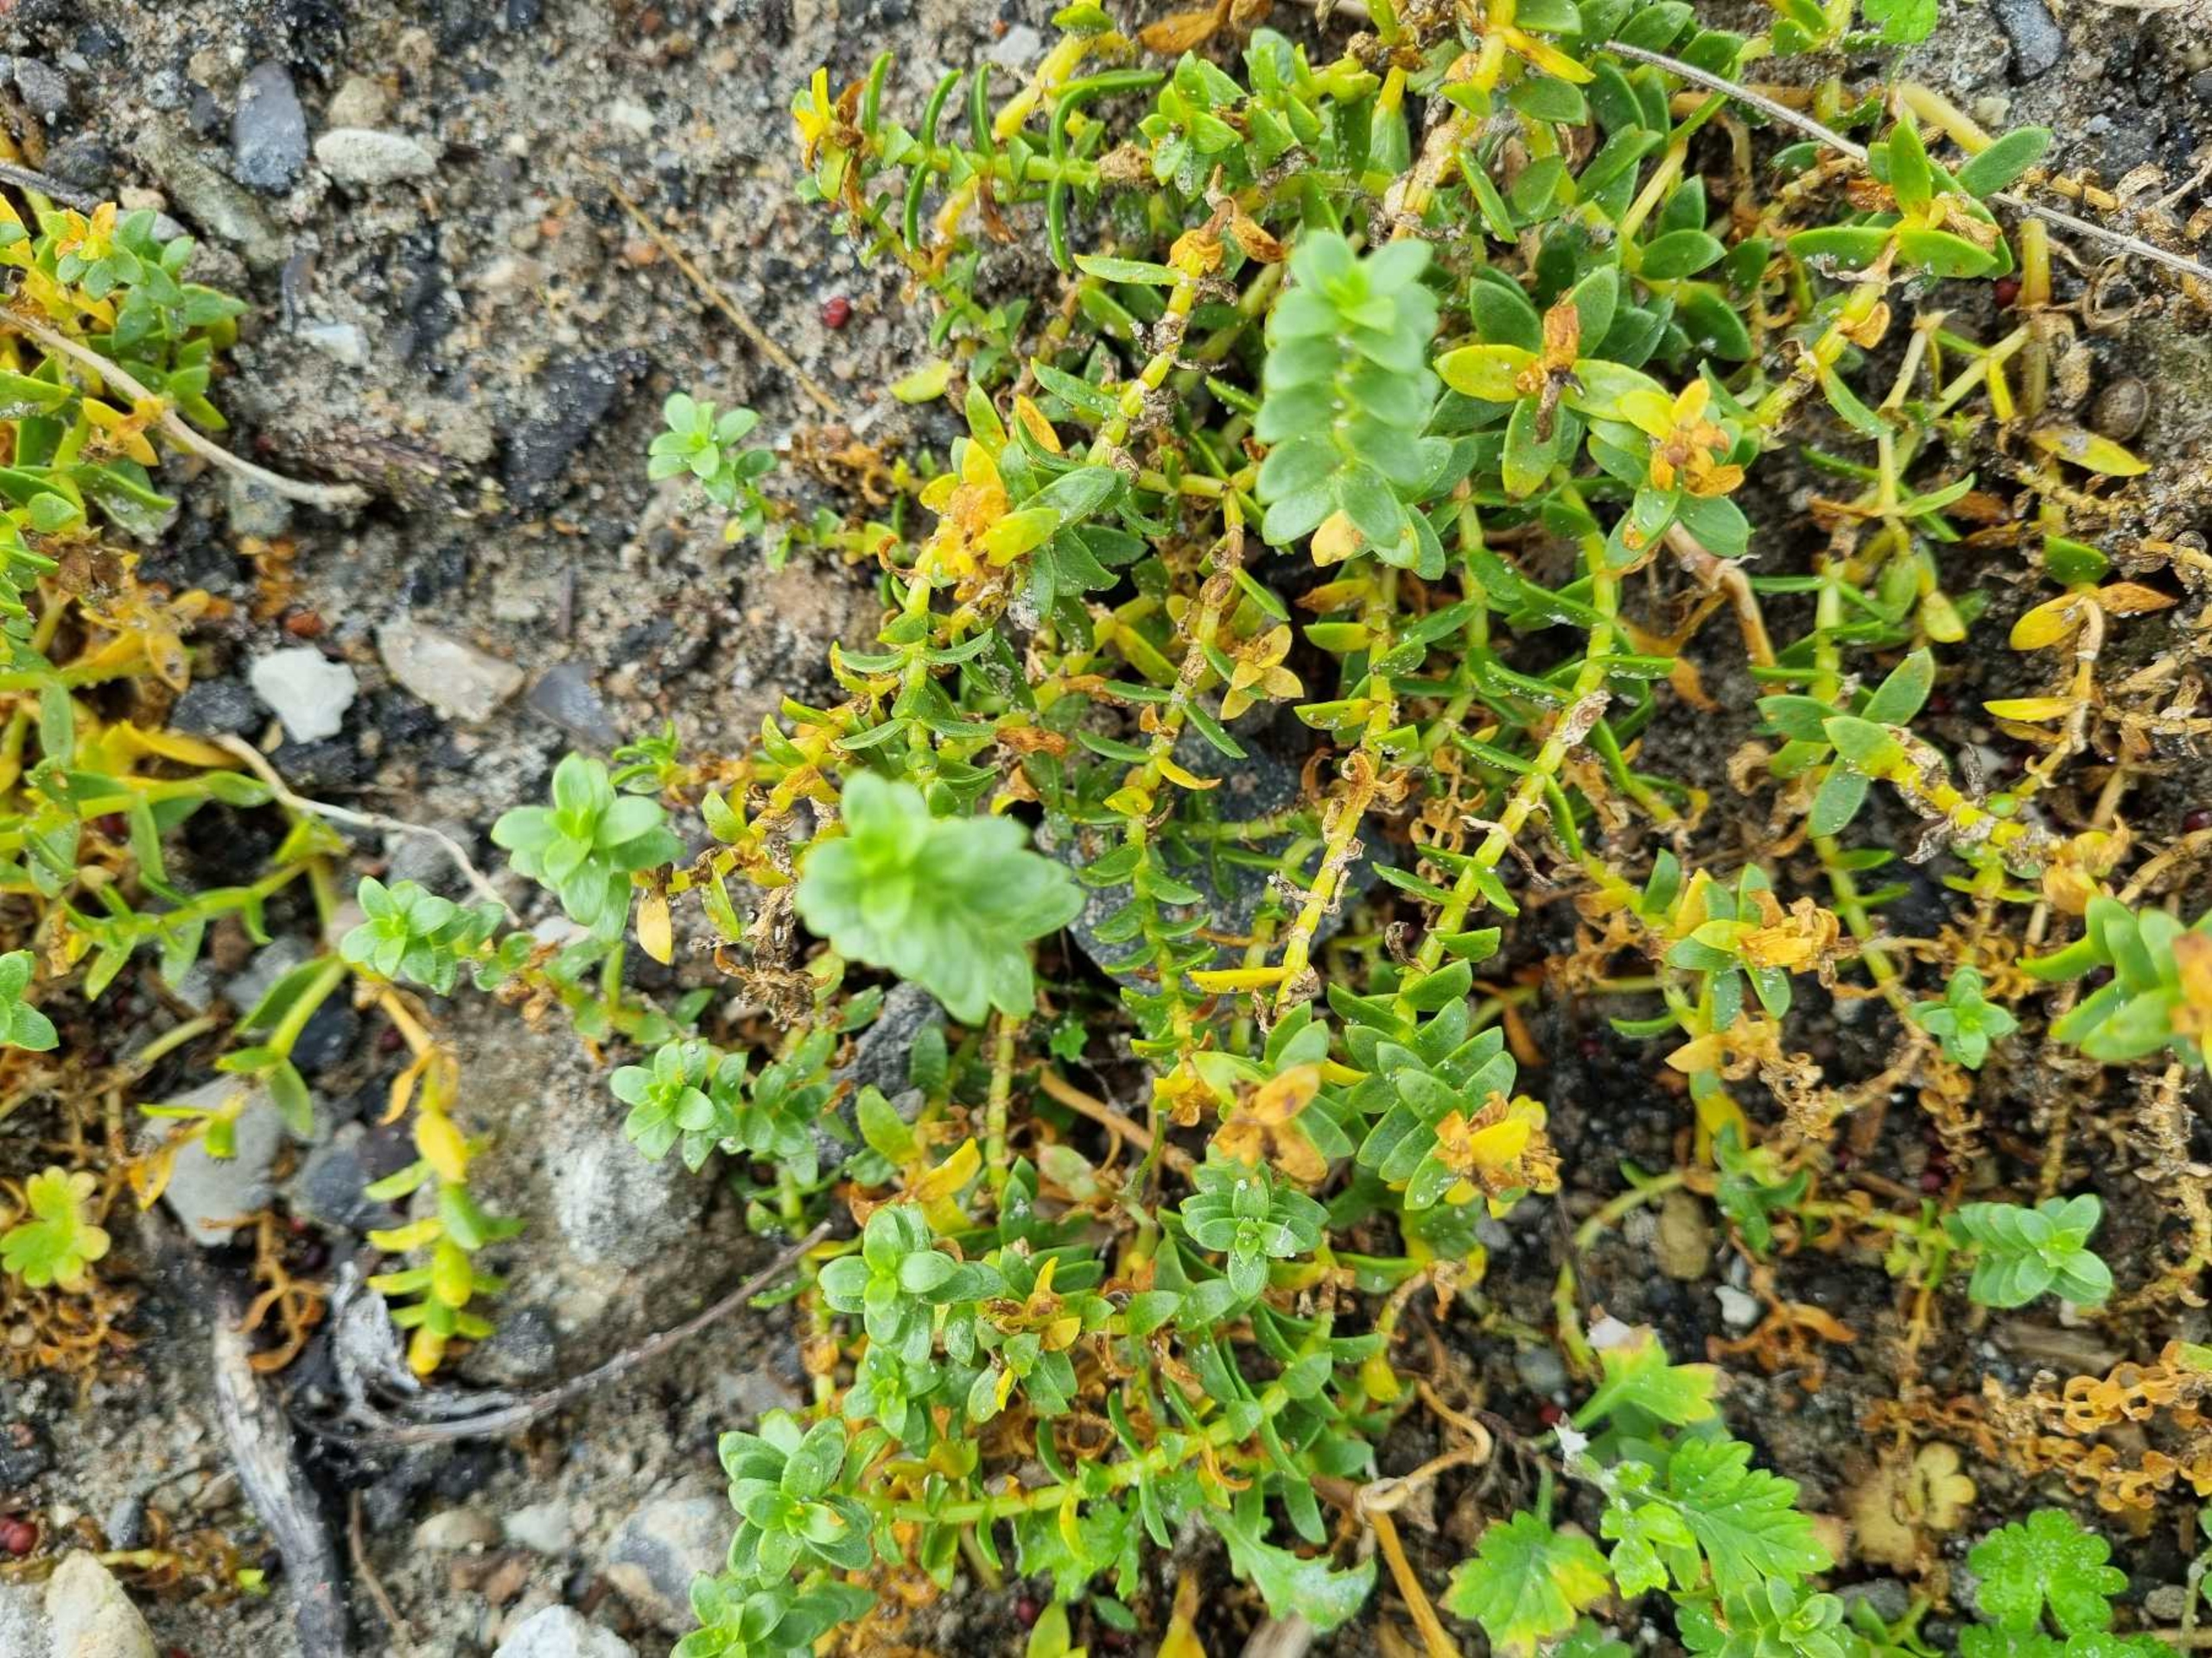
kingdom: Plantae
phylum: Tracheophyta
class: Magnoliopsida
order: Caryophyllales
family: Caryophyllaceae
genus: Honckenya
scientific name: Honckenya peploides
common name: Strandarve
